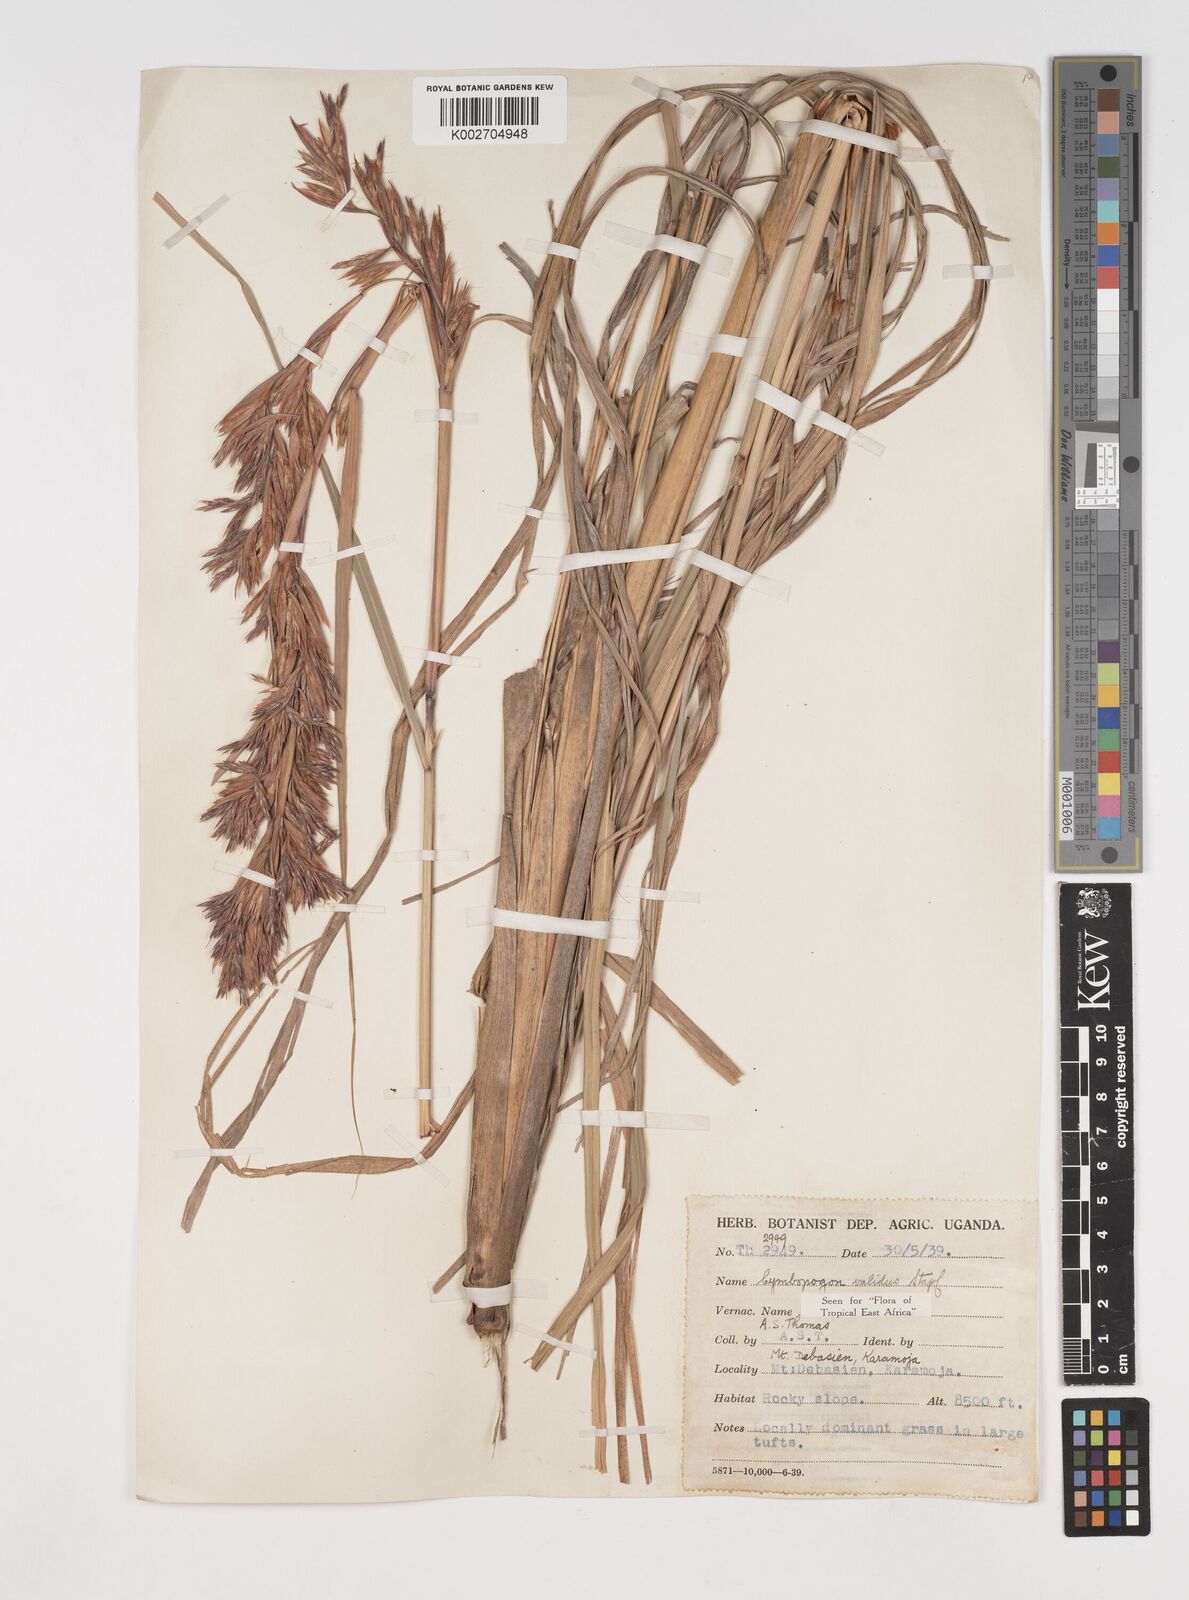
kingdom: Plantae
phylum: Tracheophyta
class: Liliopsida
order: Poales
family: Poaceae
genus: Cymbopogon
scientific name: Cymbopogon nardus
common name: Giant turpentine grass
